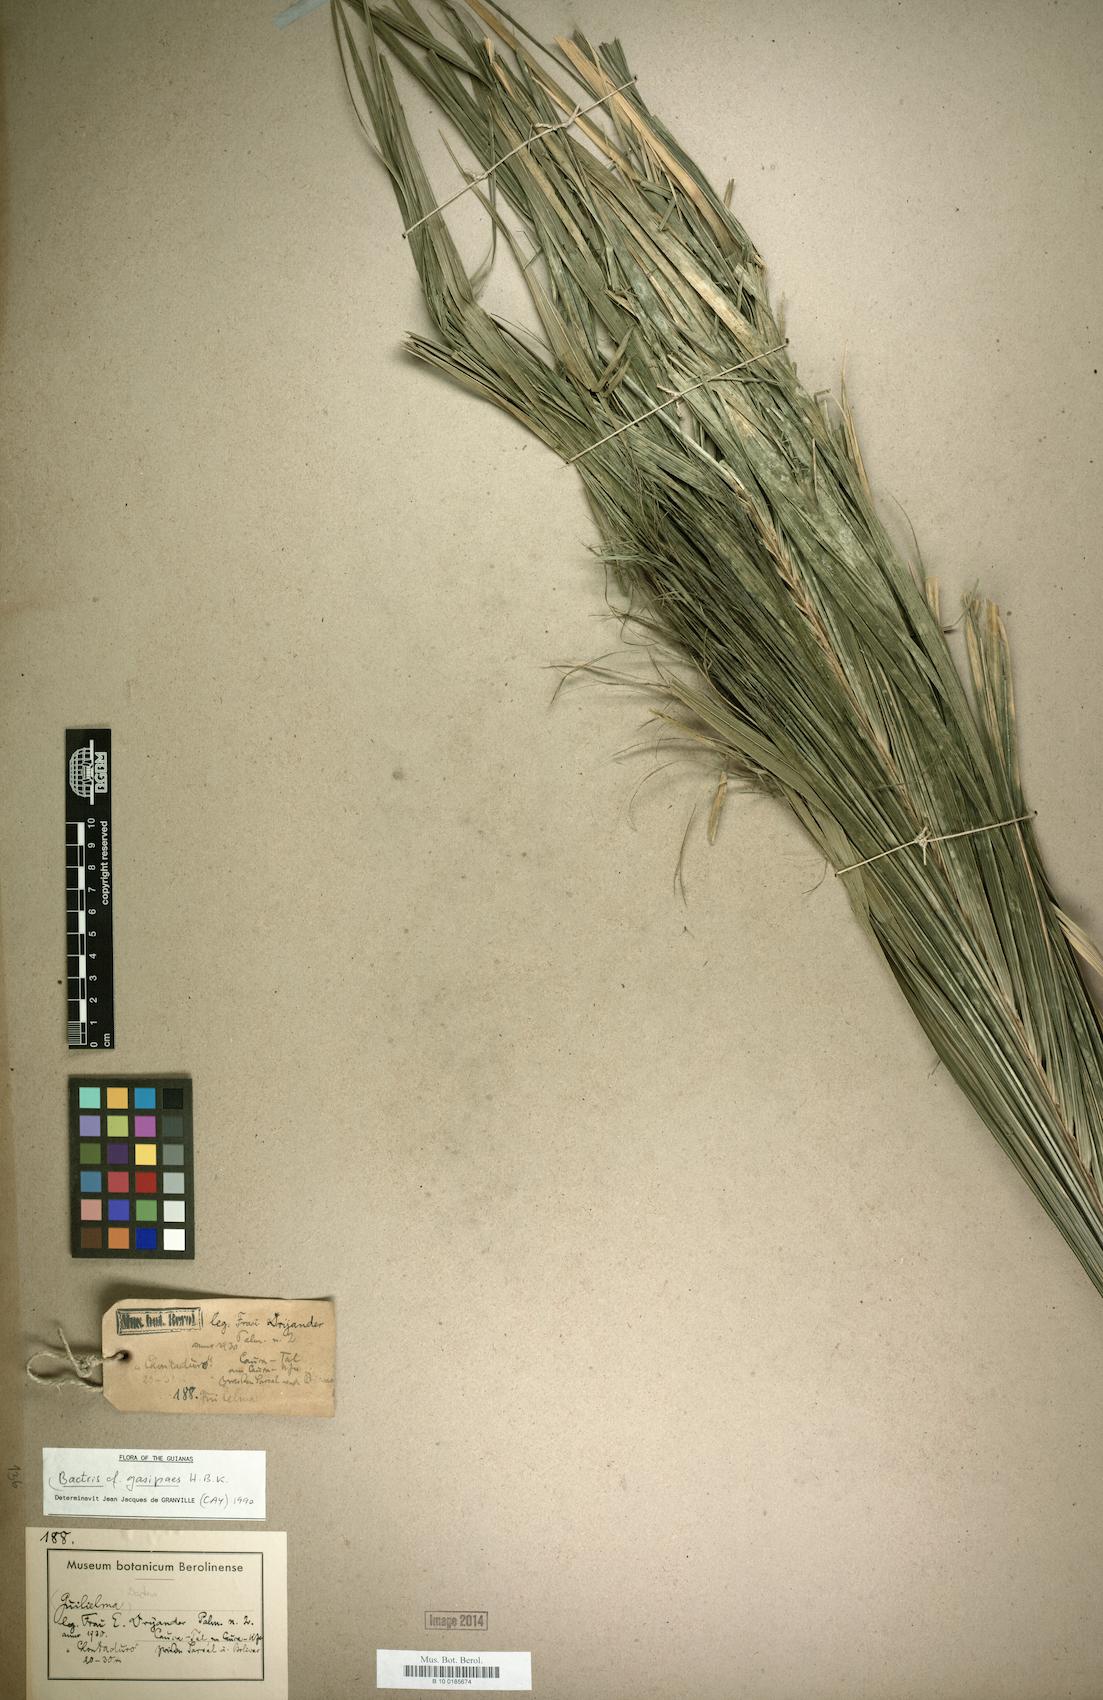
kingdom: Plantae
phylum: Tracheophyta
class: Liliopsida
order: Arecales
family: Arecaceae
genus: Bactris
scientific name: Bactris gasipaes
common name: Peach palm
